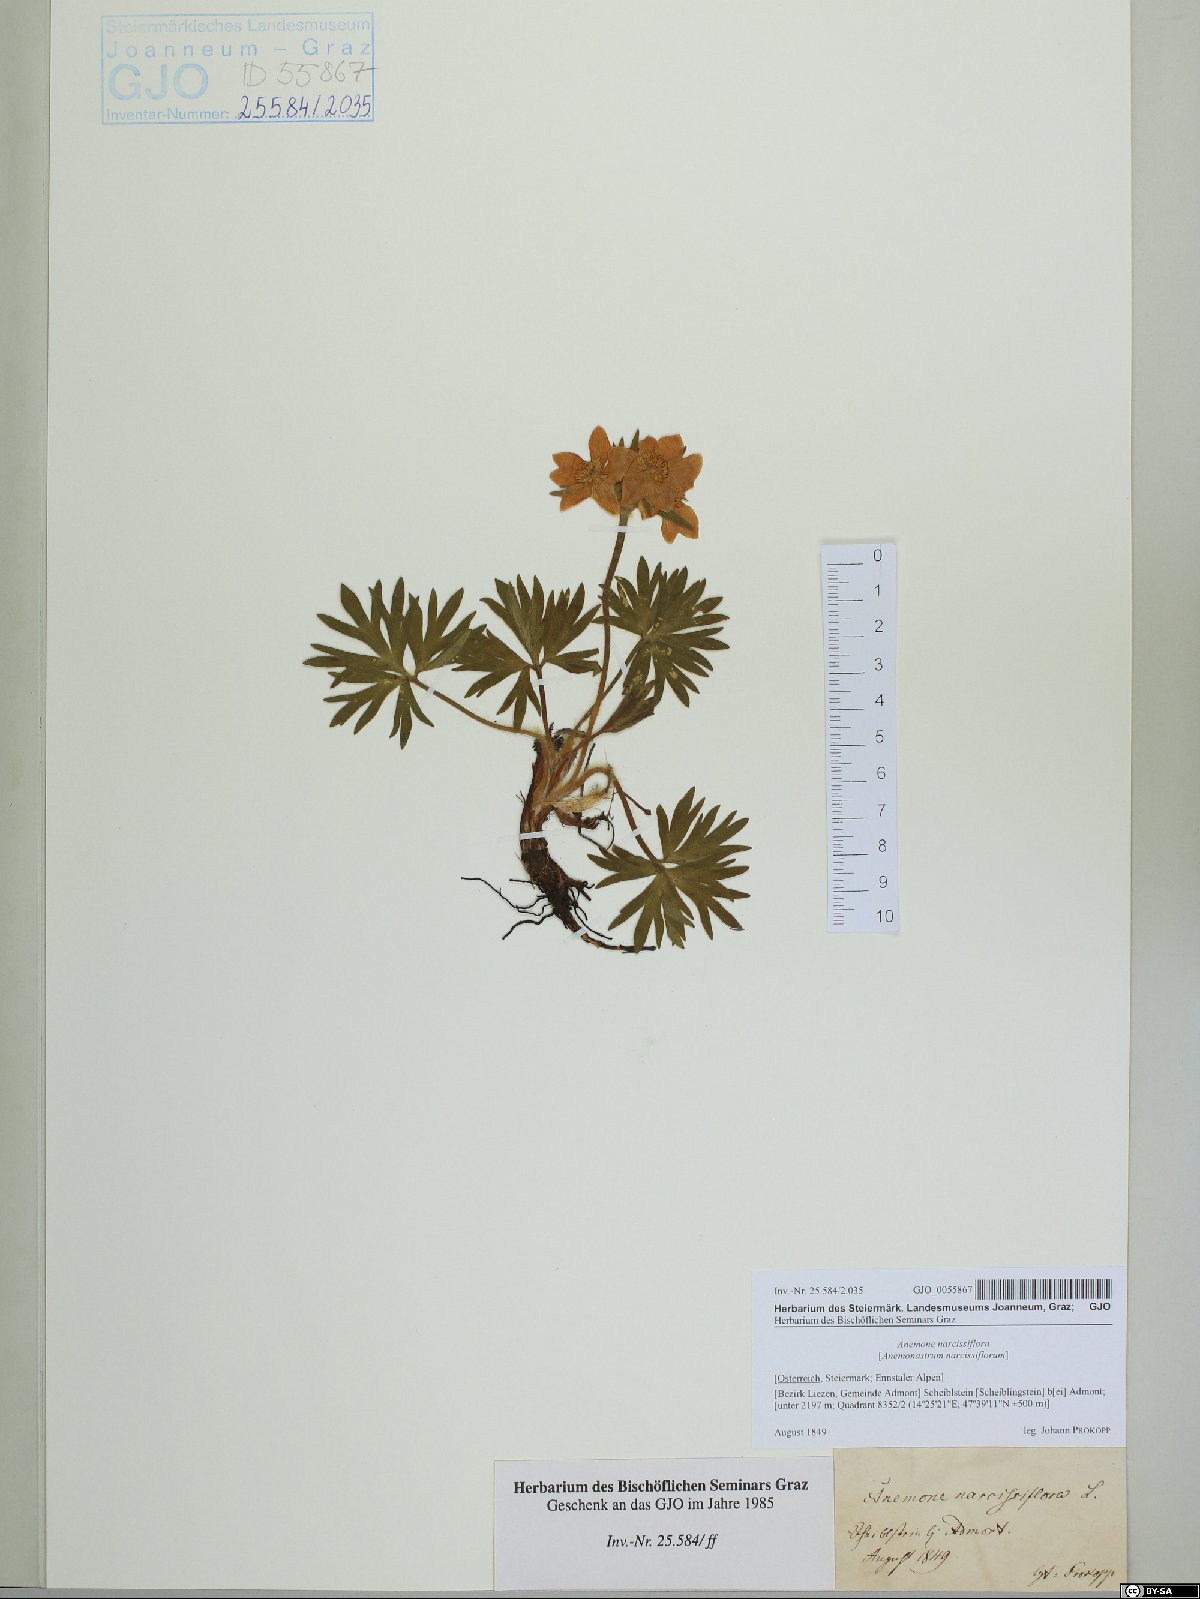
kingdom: Plantae
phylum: Tracheophyta
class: Magnoliopsida
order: Ranunculales
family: Ranunculaceae
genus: Anemonastrum
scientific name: Anemonastrum narcissiflorum
